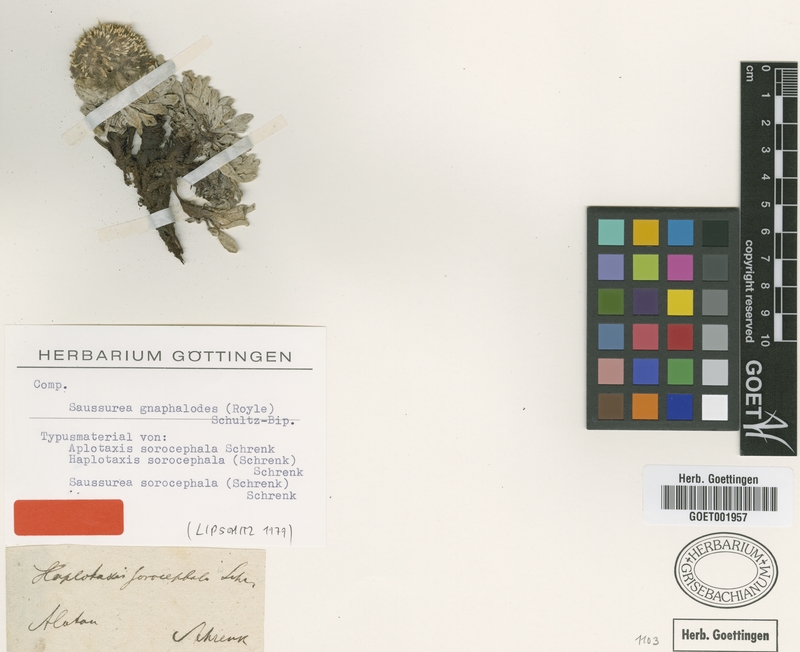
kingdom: Plantae
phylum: Tracheophyta
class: Magnoliopsida
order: Asterales
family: Asteraceae
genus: Saussurea
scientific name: Saussurea gnaphalodes
